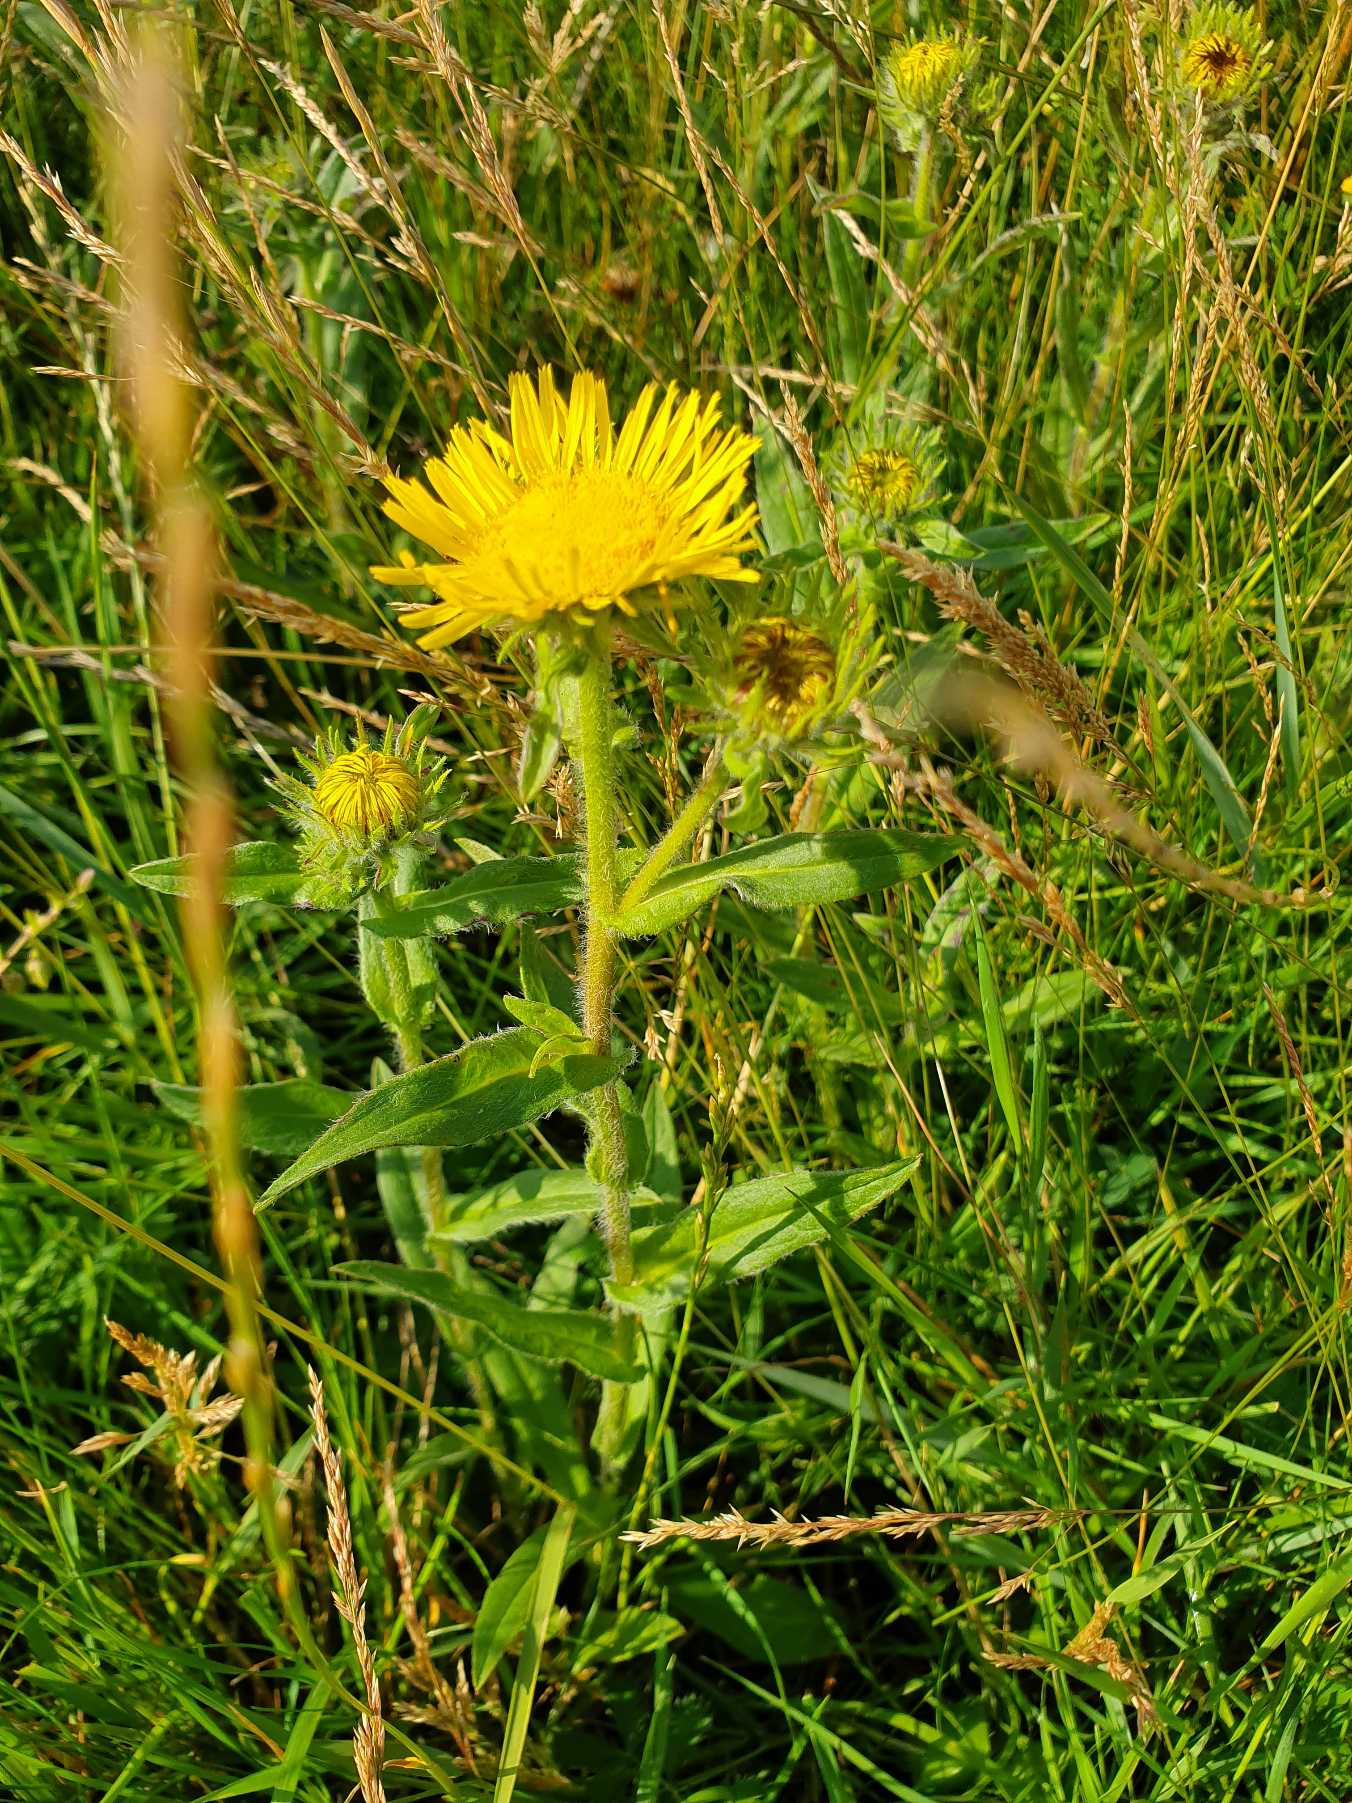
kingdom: Plantae
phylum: Tracheophyta
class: Magnoliopsida
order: Asterales
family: Asteraceae
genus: Pentanema
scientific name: Pentanema britannicum
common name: Soløje-alant
